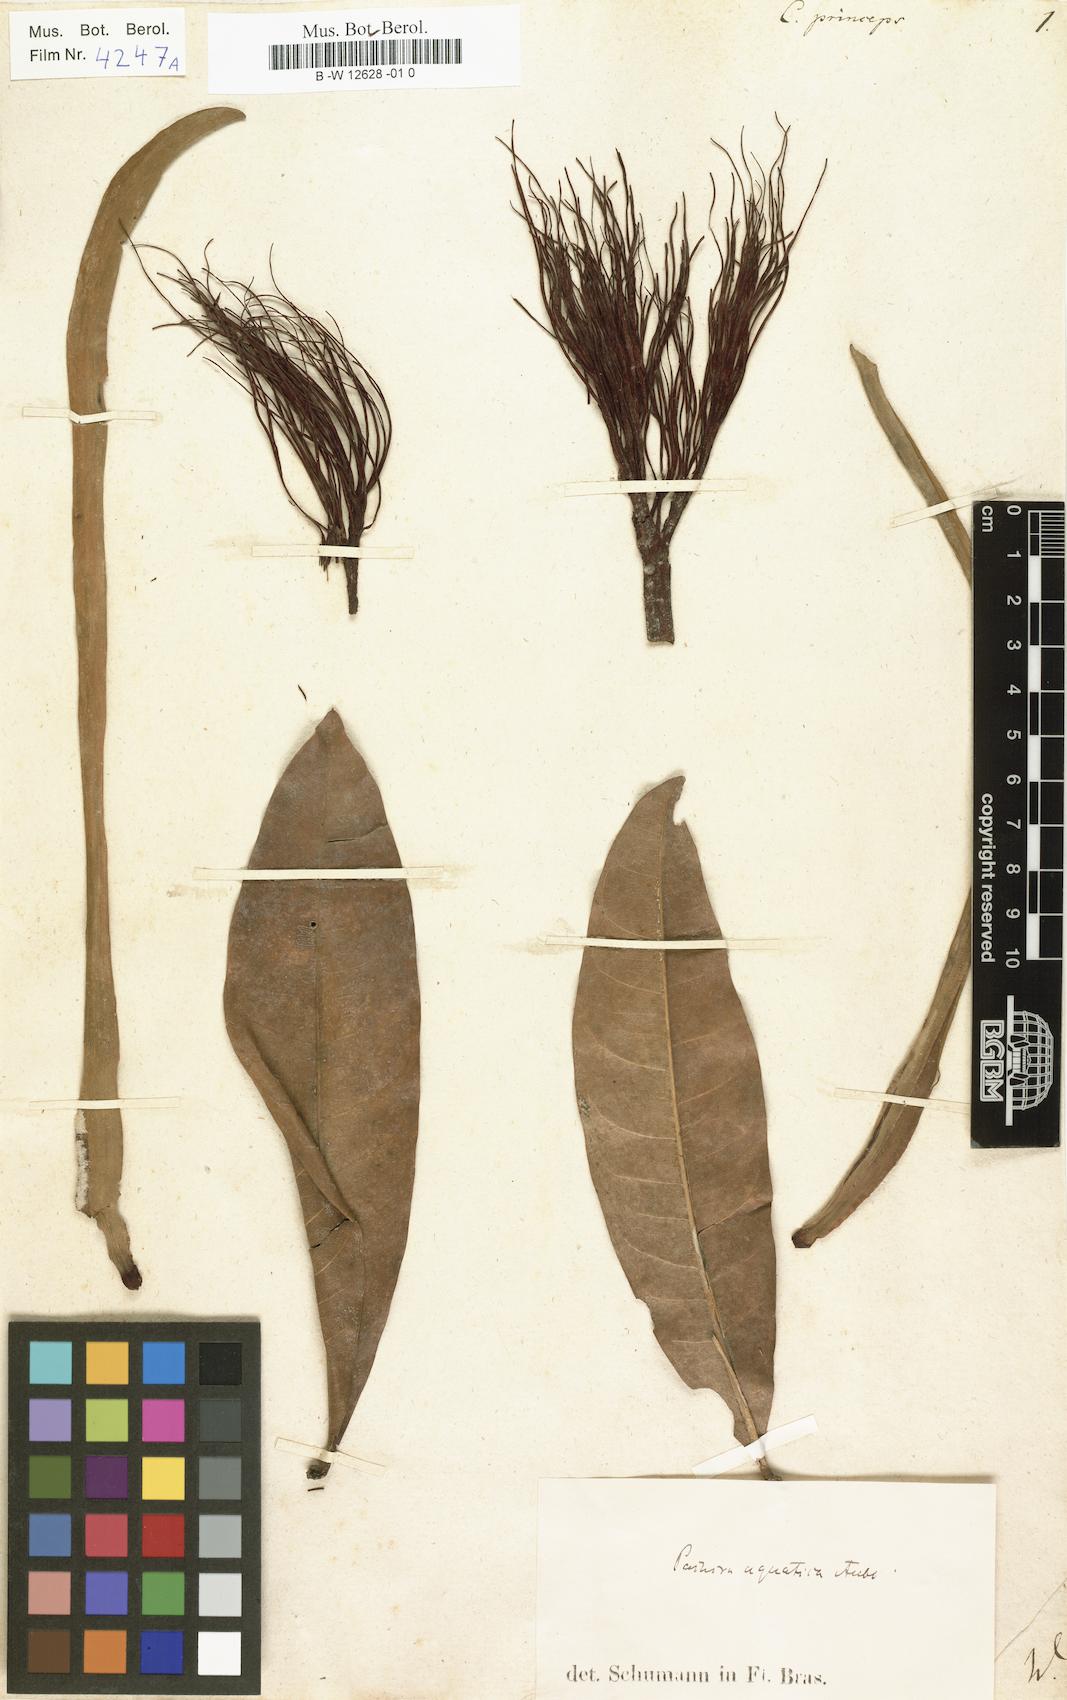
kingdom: Plantae
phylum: Tracheophyta
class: Magnoliopsida
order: Malvales
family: Malvaceae
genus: Pachira
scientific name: Pachira aquatica
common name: Provision-tree
